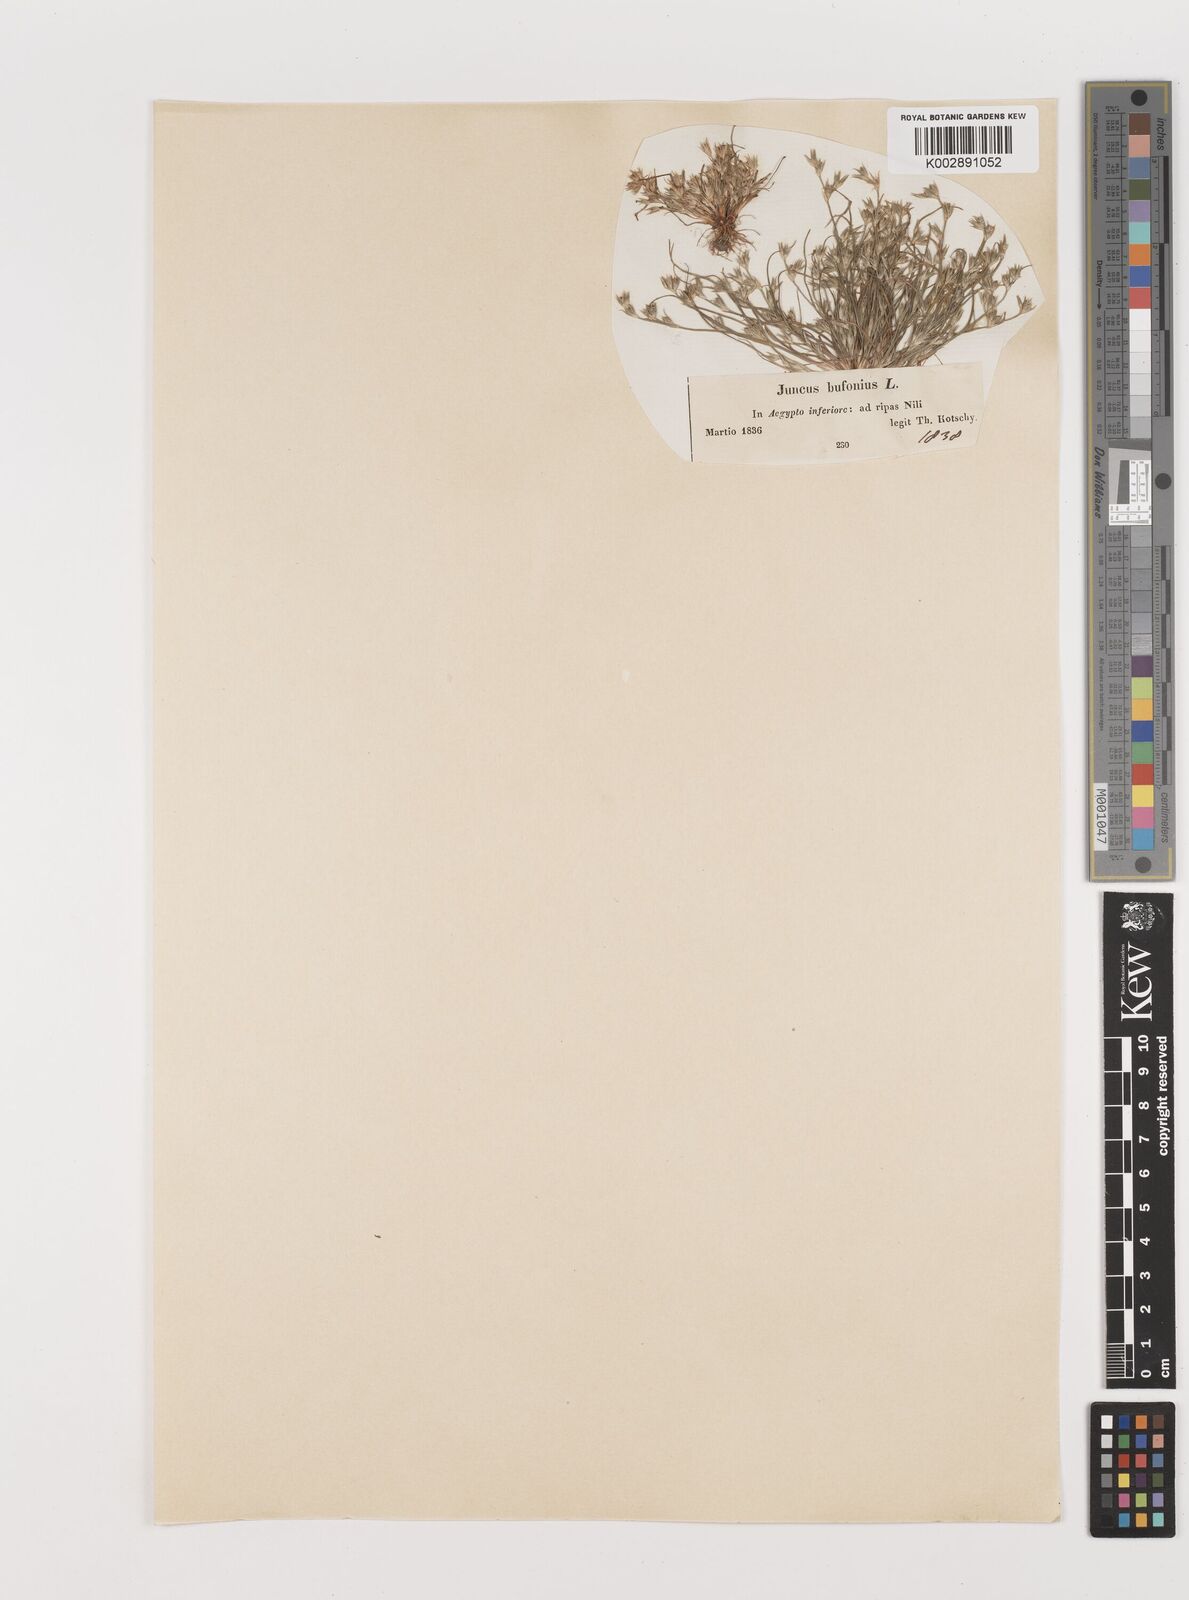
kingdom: Plantae
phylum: Tracheophyta
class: Liliopsida
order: Poales
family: Juncaceae
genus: Juncus
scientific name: Juncus bufonius
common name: Toad rush
